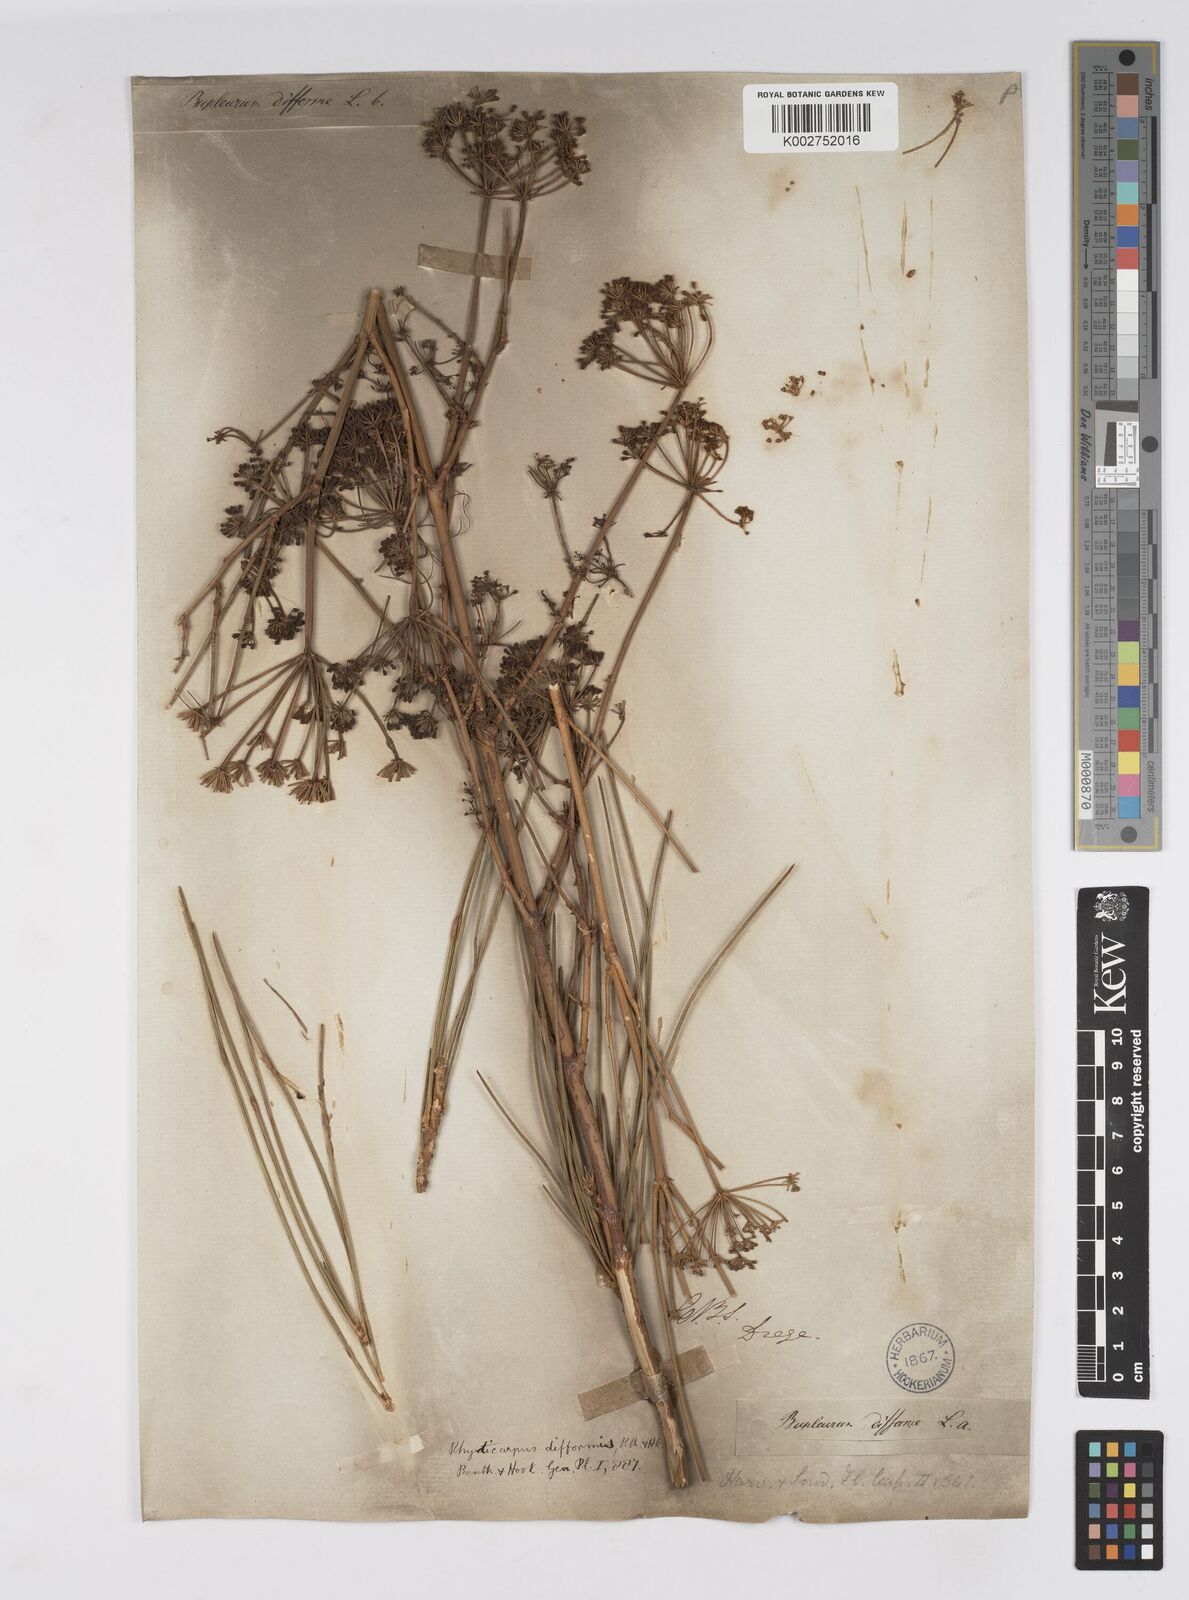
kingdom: Plantae
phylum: Tracheophyta
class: Magnoliopsida
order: Apiales
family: Apiaceae
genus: Anginon
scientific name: Anginon difforme
